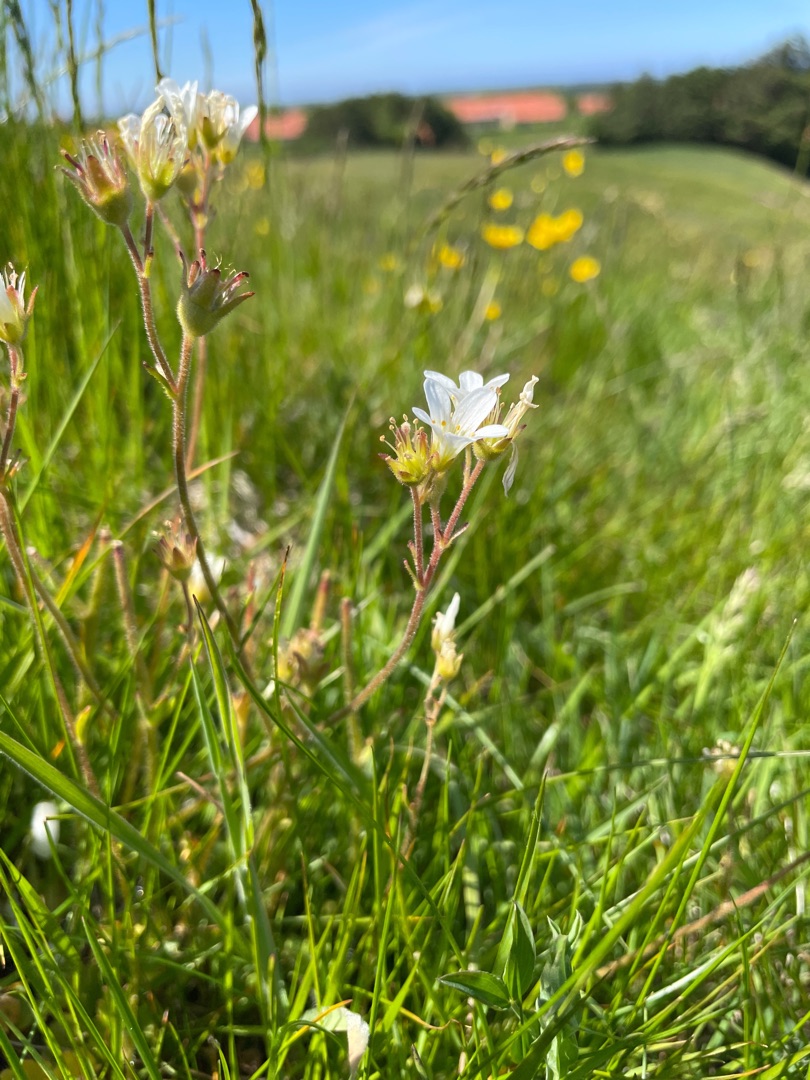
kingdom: Plantae
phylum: Tracheophyta
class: Magnoliopsida
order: Saxifragales
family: Saxifragaceae
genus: Saxifraga
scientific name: Saxifraga granulata
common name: Kornet stenbræk
